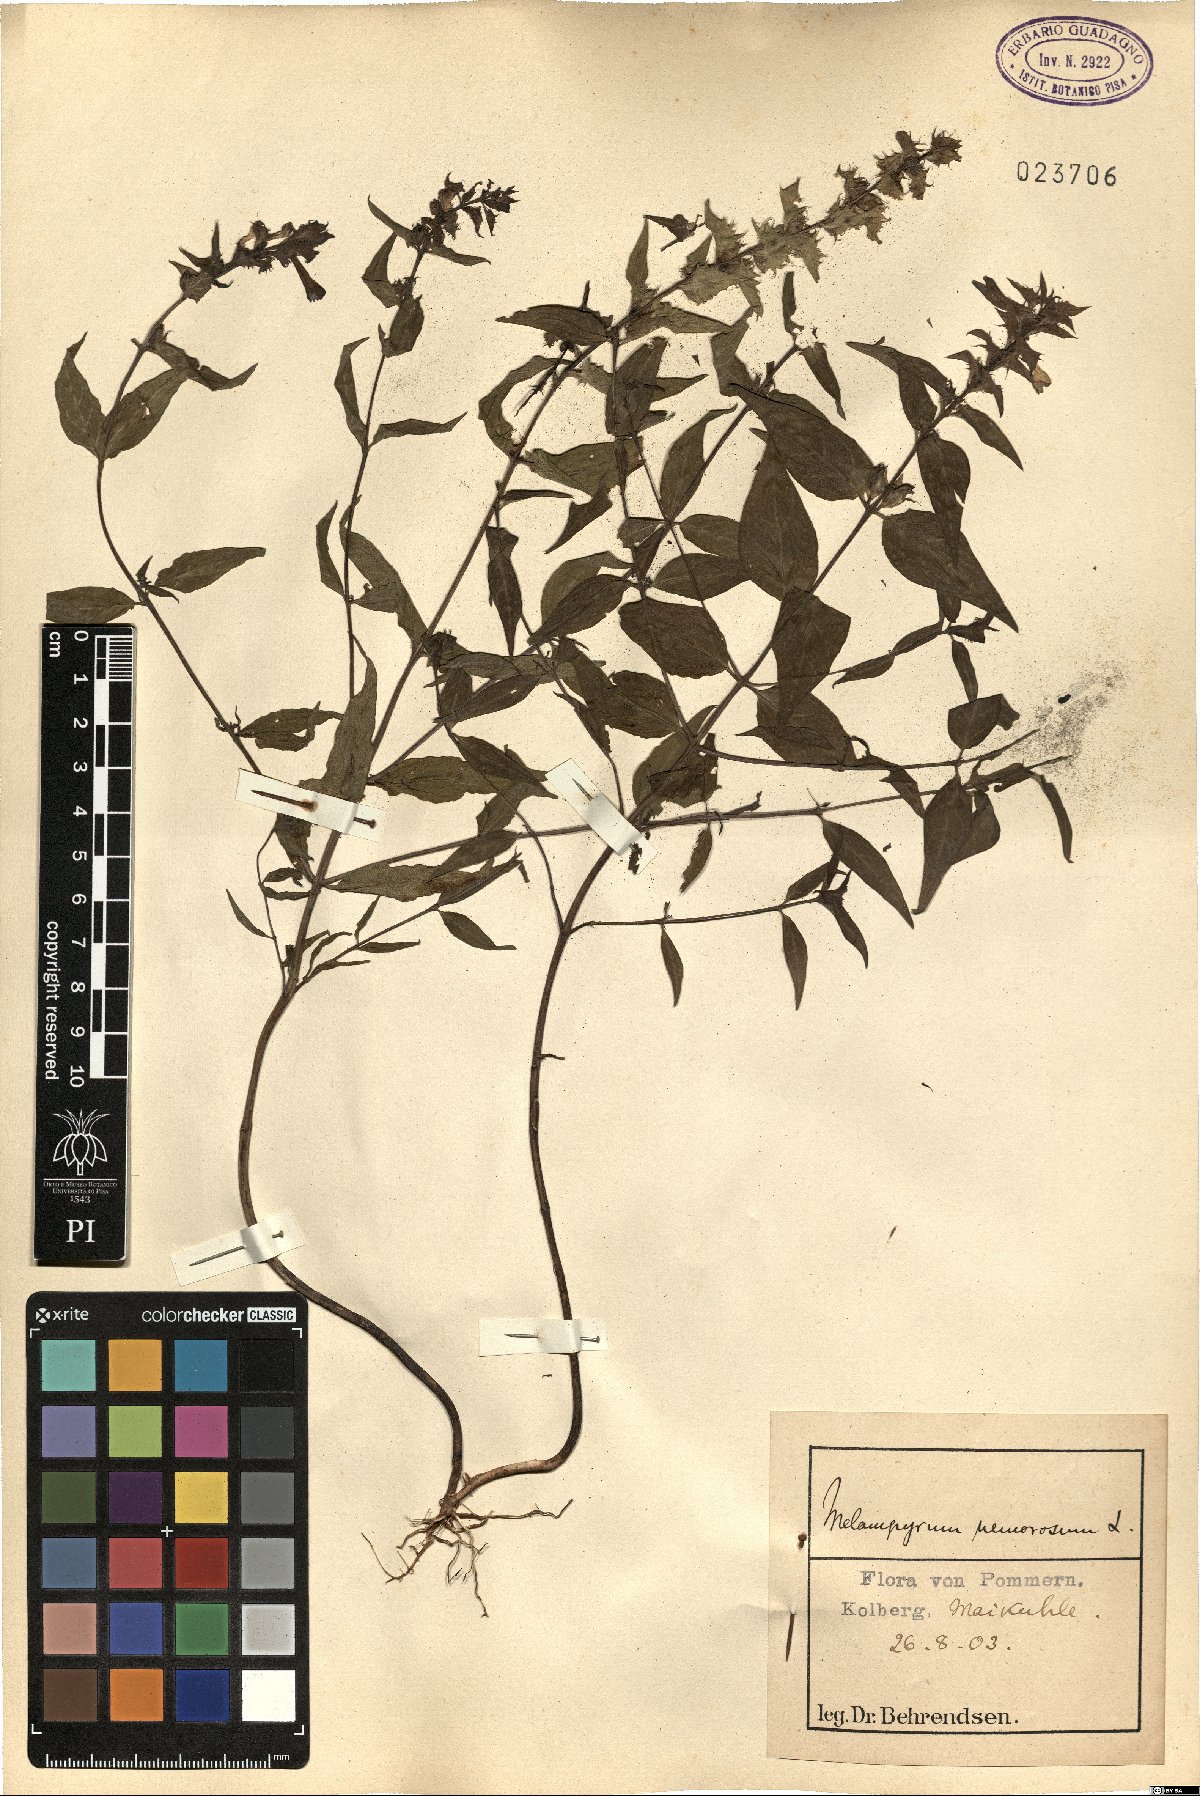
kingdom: Plantae
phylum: Tracheophyta
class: Magnoliopsida
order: Lamiales
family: Orobanchaceae
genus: Melampyrum
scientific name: Melampyrum nemorosum
